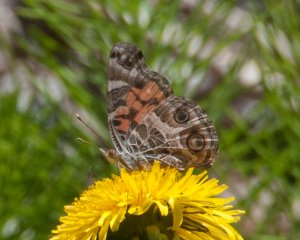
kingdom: Animalia
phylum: Arthropoda
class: Insecta
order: Lepidoptera
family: Nymphalidae
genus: Vanessa
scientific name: Vanessa virginiensis
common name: American Lady
